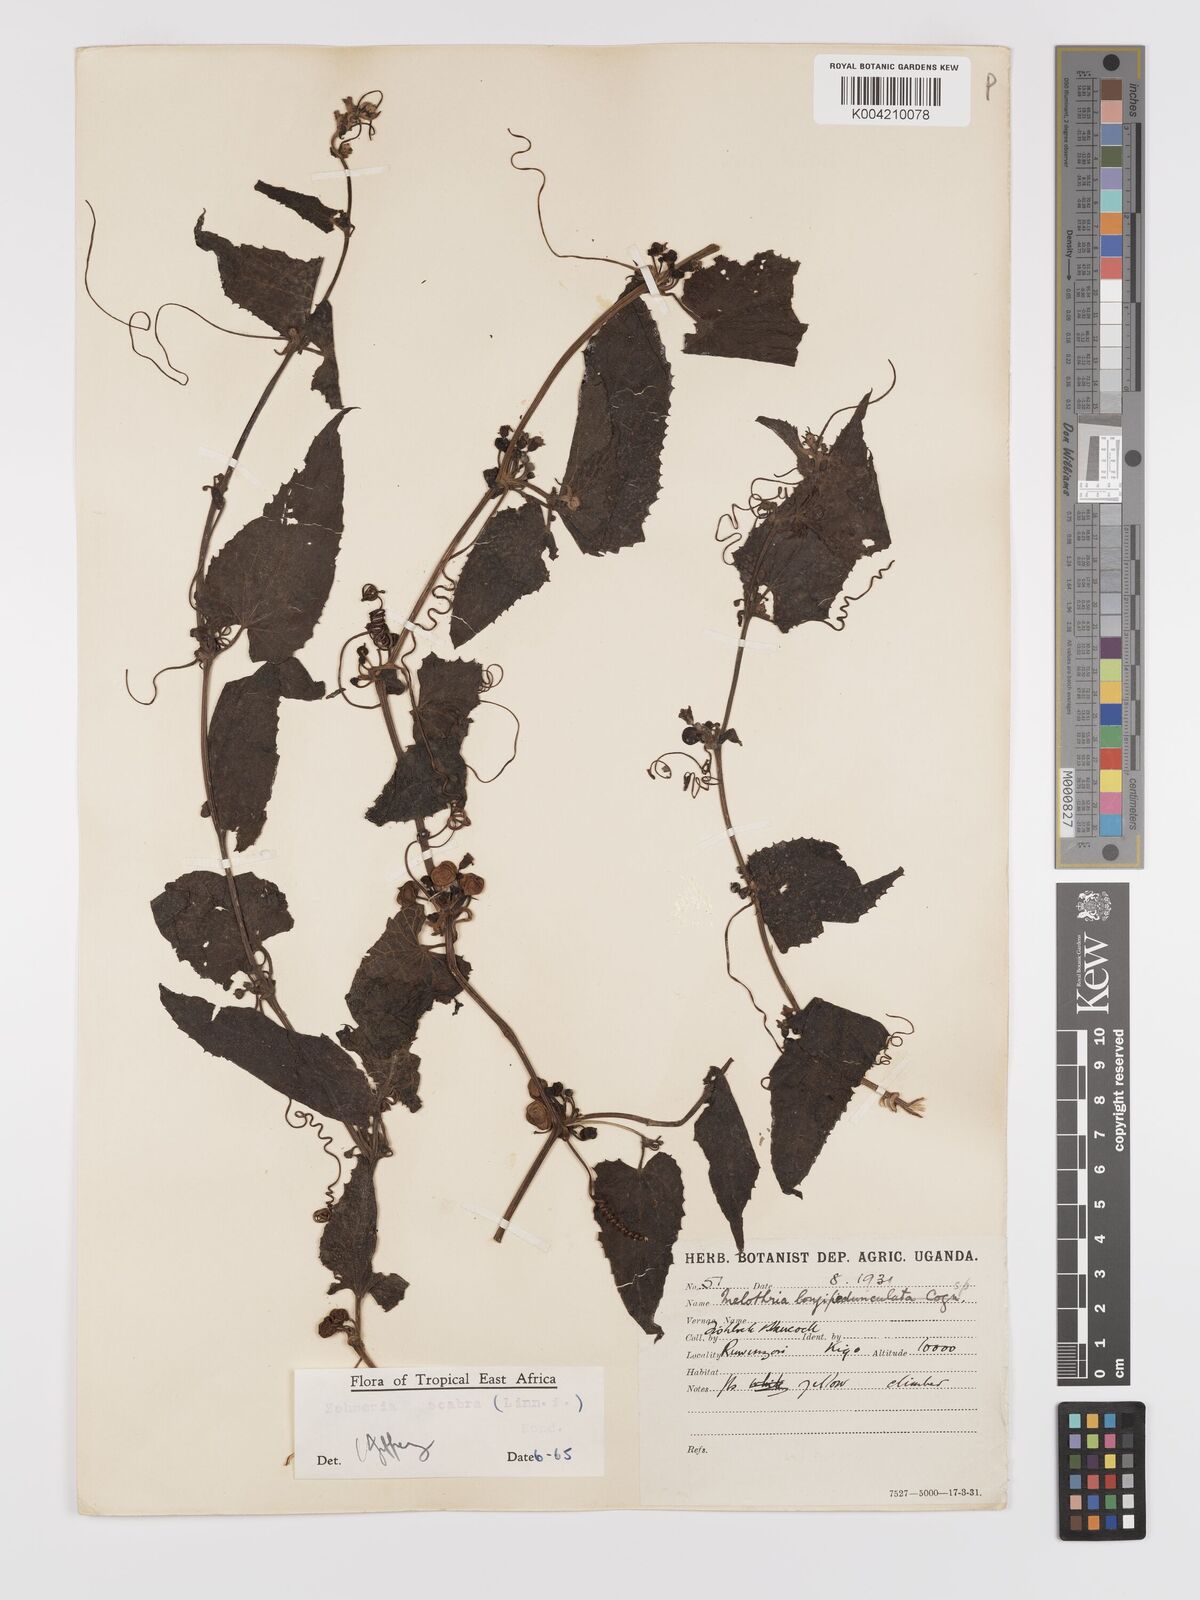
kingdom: Plantae
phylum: Tracheophyta
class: Magnoliopsida
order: Cucurbitales
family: Cucurbitaceae
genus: Zehneria
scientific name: Zehneria scabra
